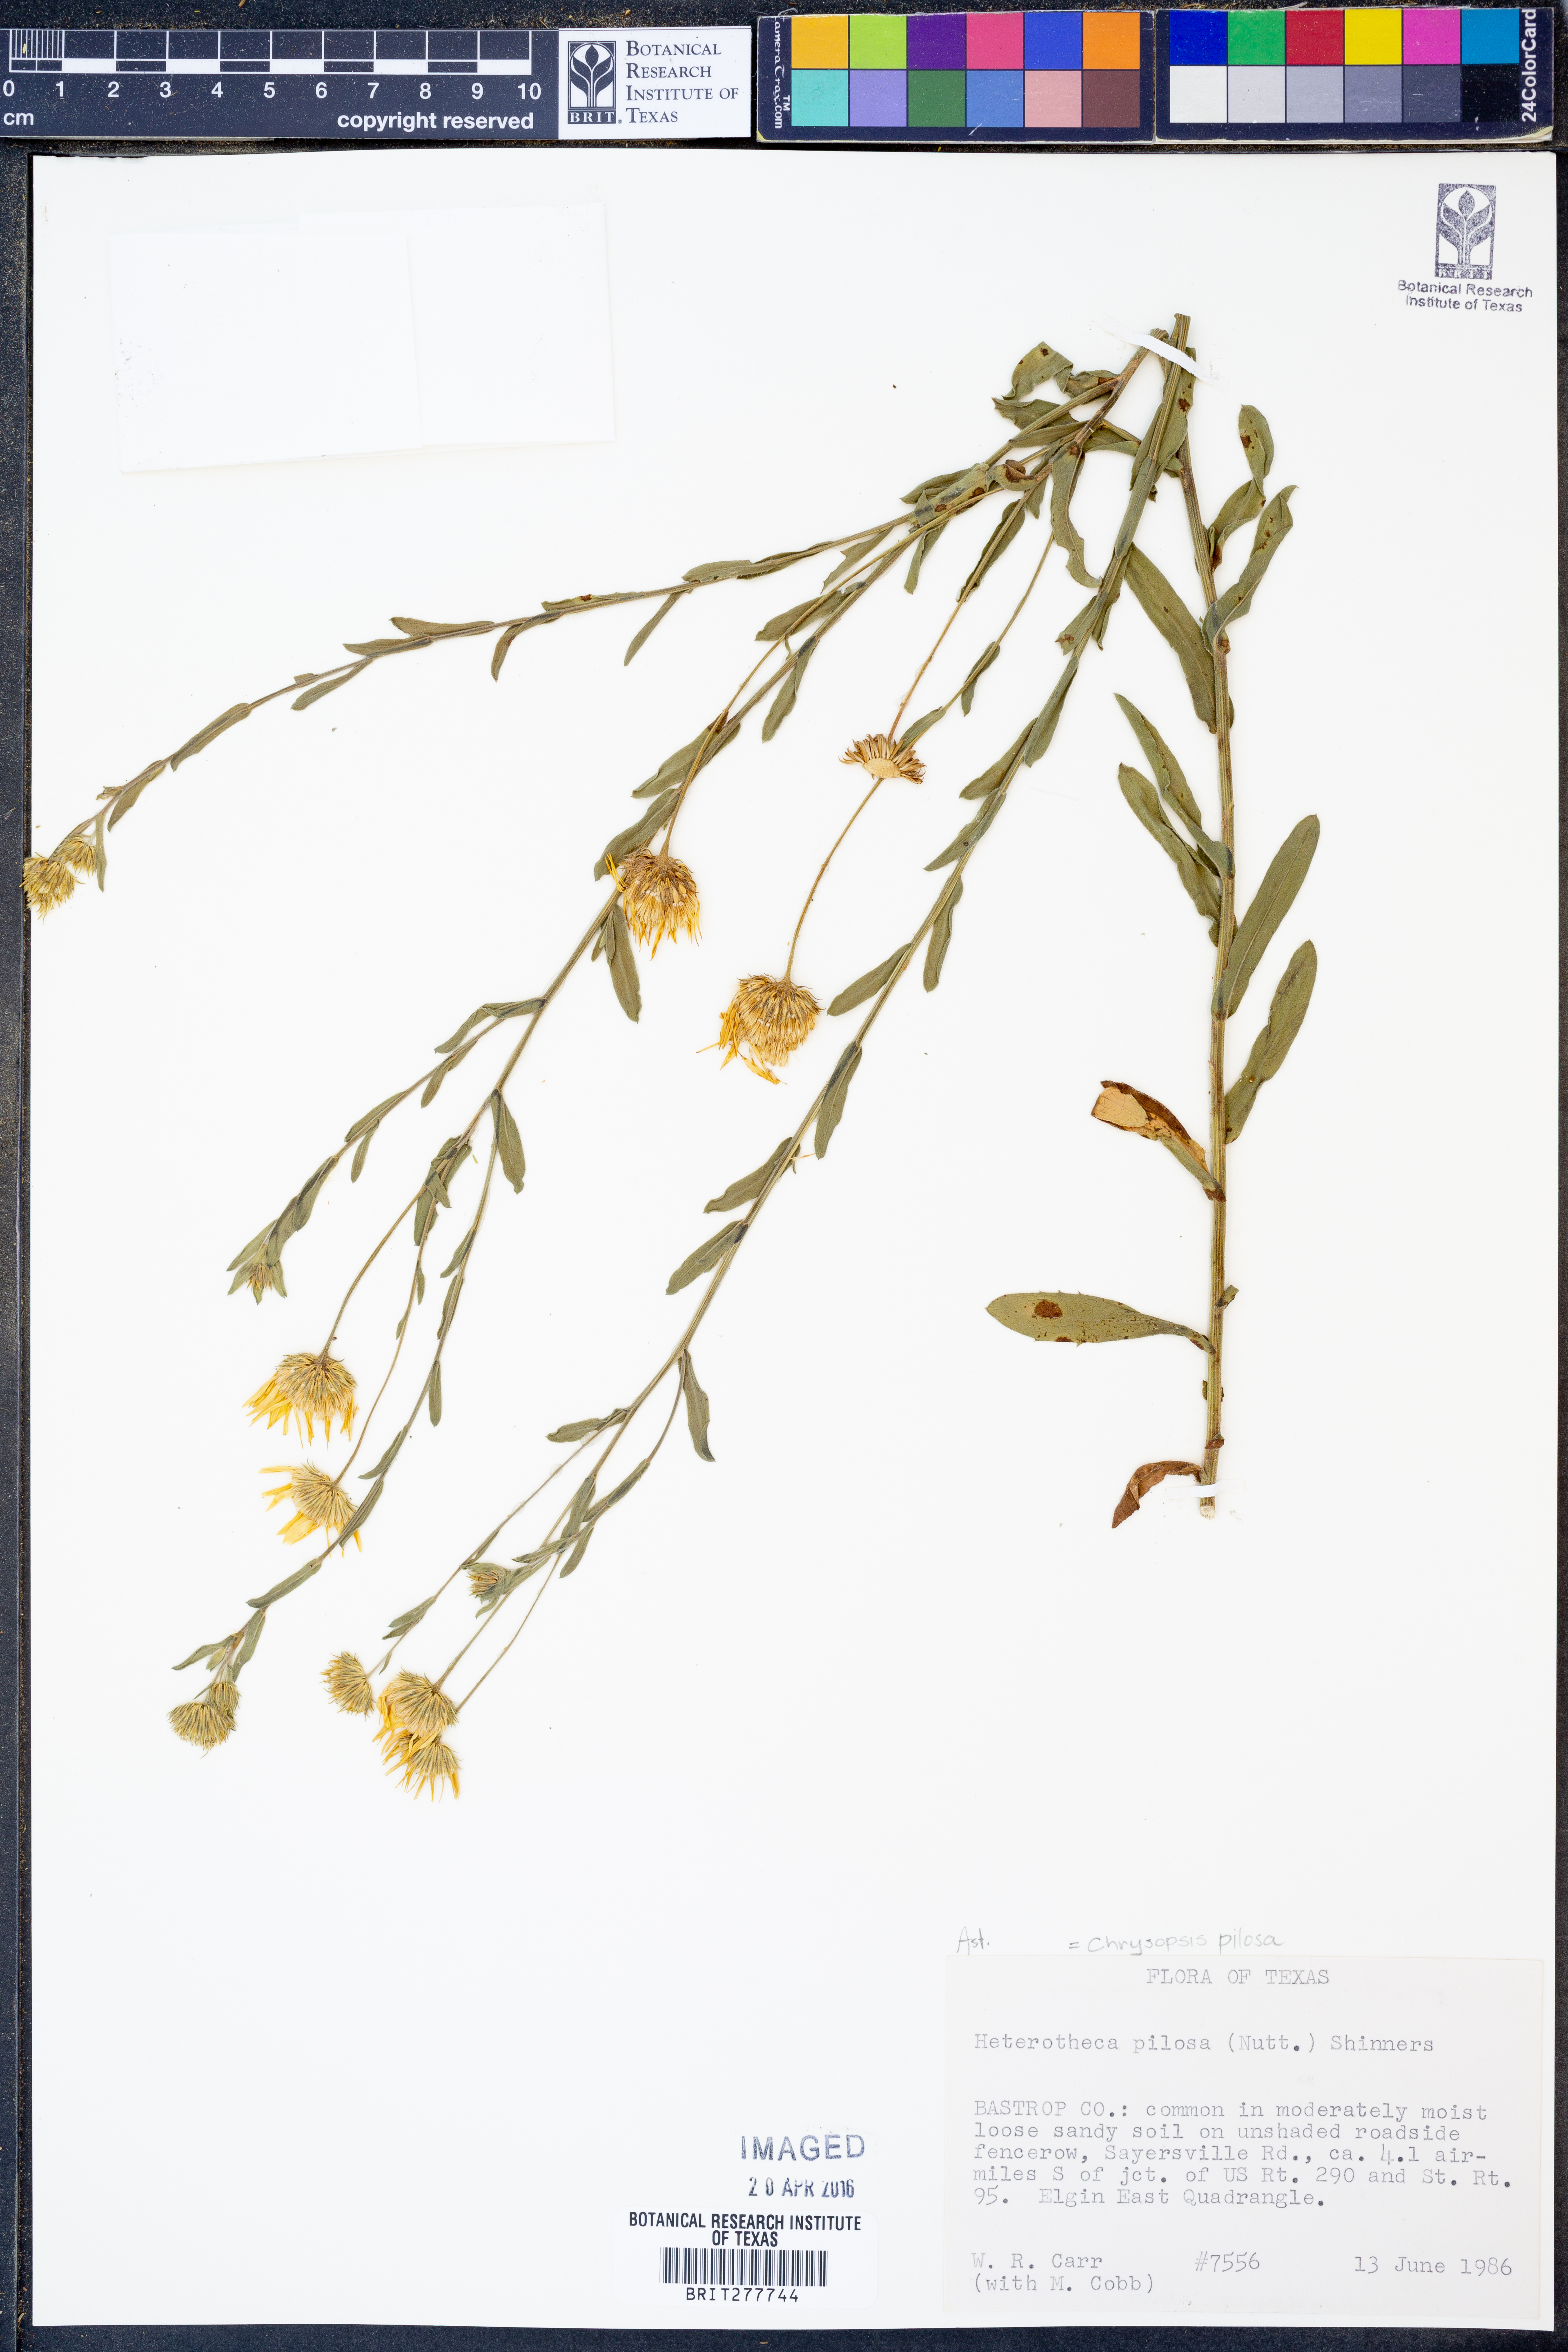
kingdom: Plantae
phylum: Tracheophyta
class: Magnoliopsida
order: Asterales
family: Asteraceae
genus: Bradburia
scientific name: Bradburia pilosa
